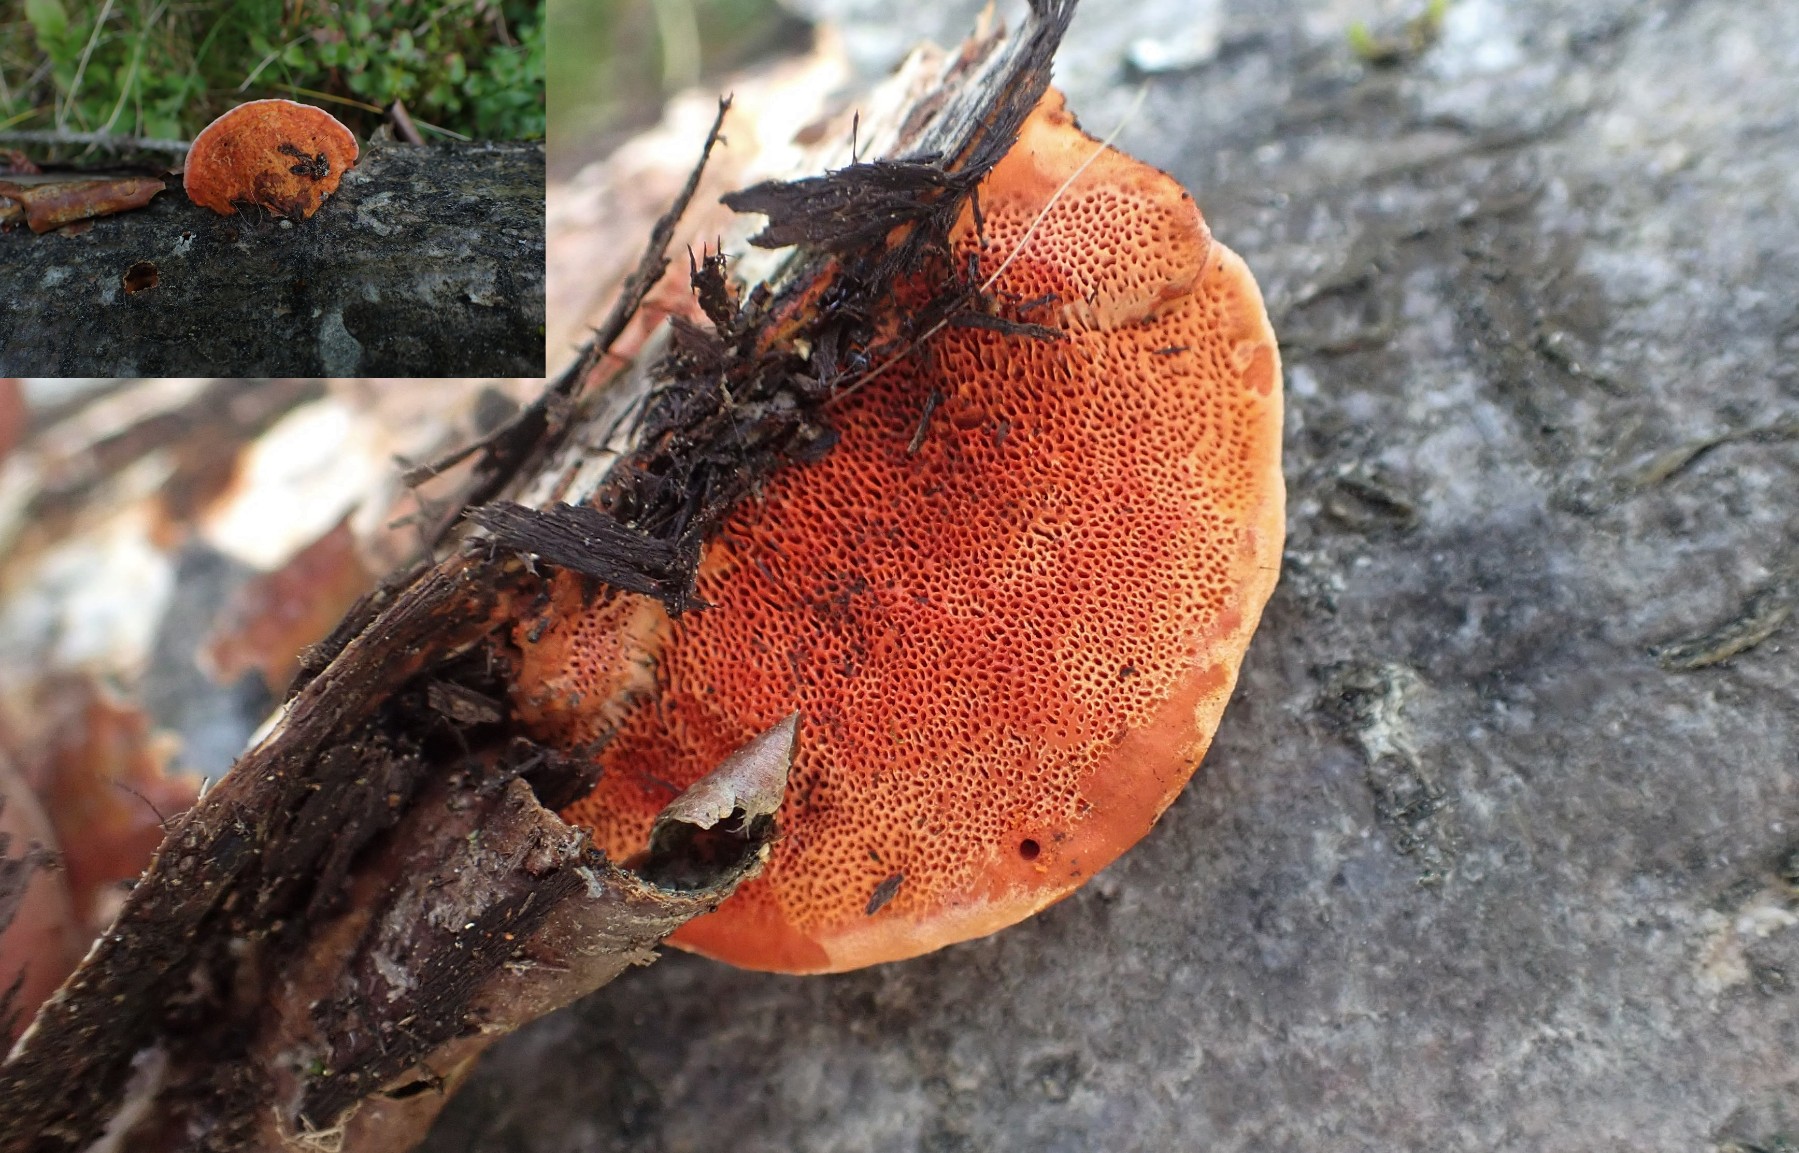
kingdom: Fungi
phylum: Basidiomycota
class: Agaricomycetes
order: Polyporales
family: Polyporaceae
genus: Trametes
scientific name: Trametes cinnabarina
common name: cinnoberporesvamp
